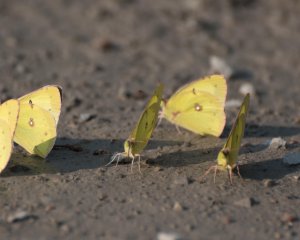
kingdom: Animalia
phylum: Arthropoda
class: Insecta
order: Lepidoptera
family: Pieridae
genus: Colias
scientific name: Colias philodice
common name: Clouded Sulphur
